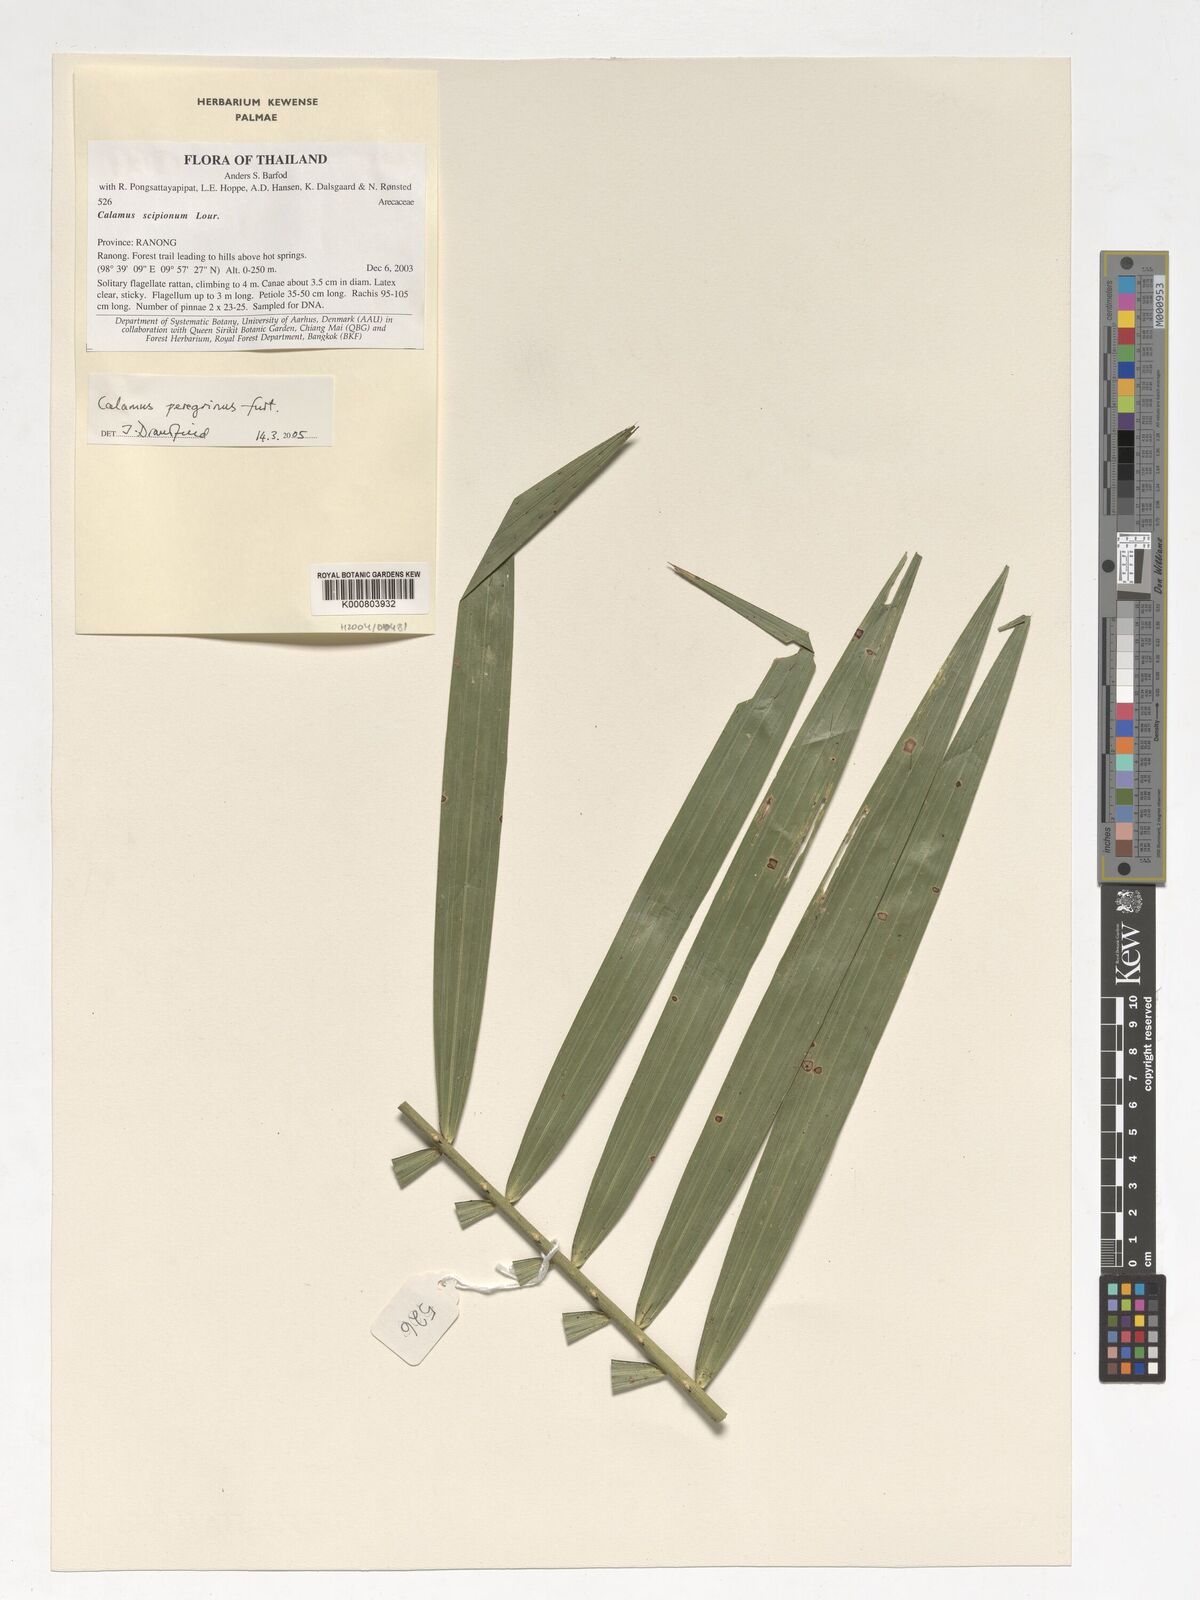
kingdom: Plantae
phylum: Tracheophyta
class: Liliopsida
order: Arecales
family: Arecaceae
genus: Calamus
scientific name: Calamus scipionum
